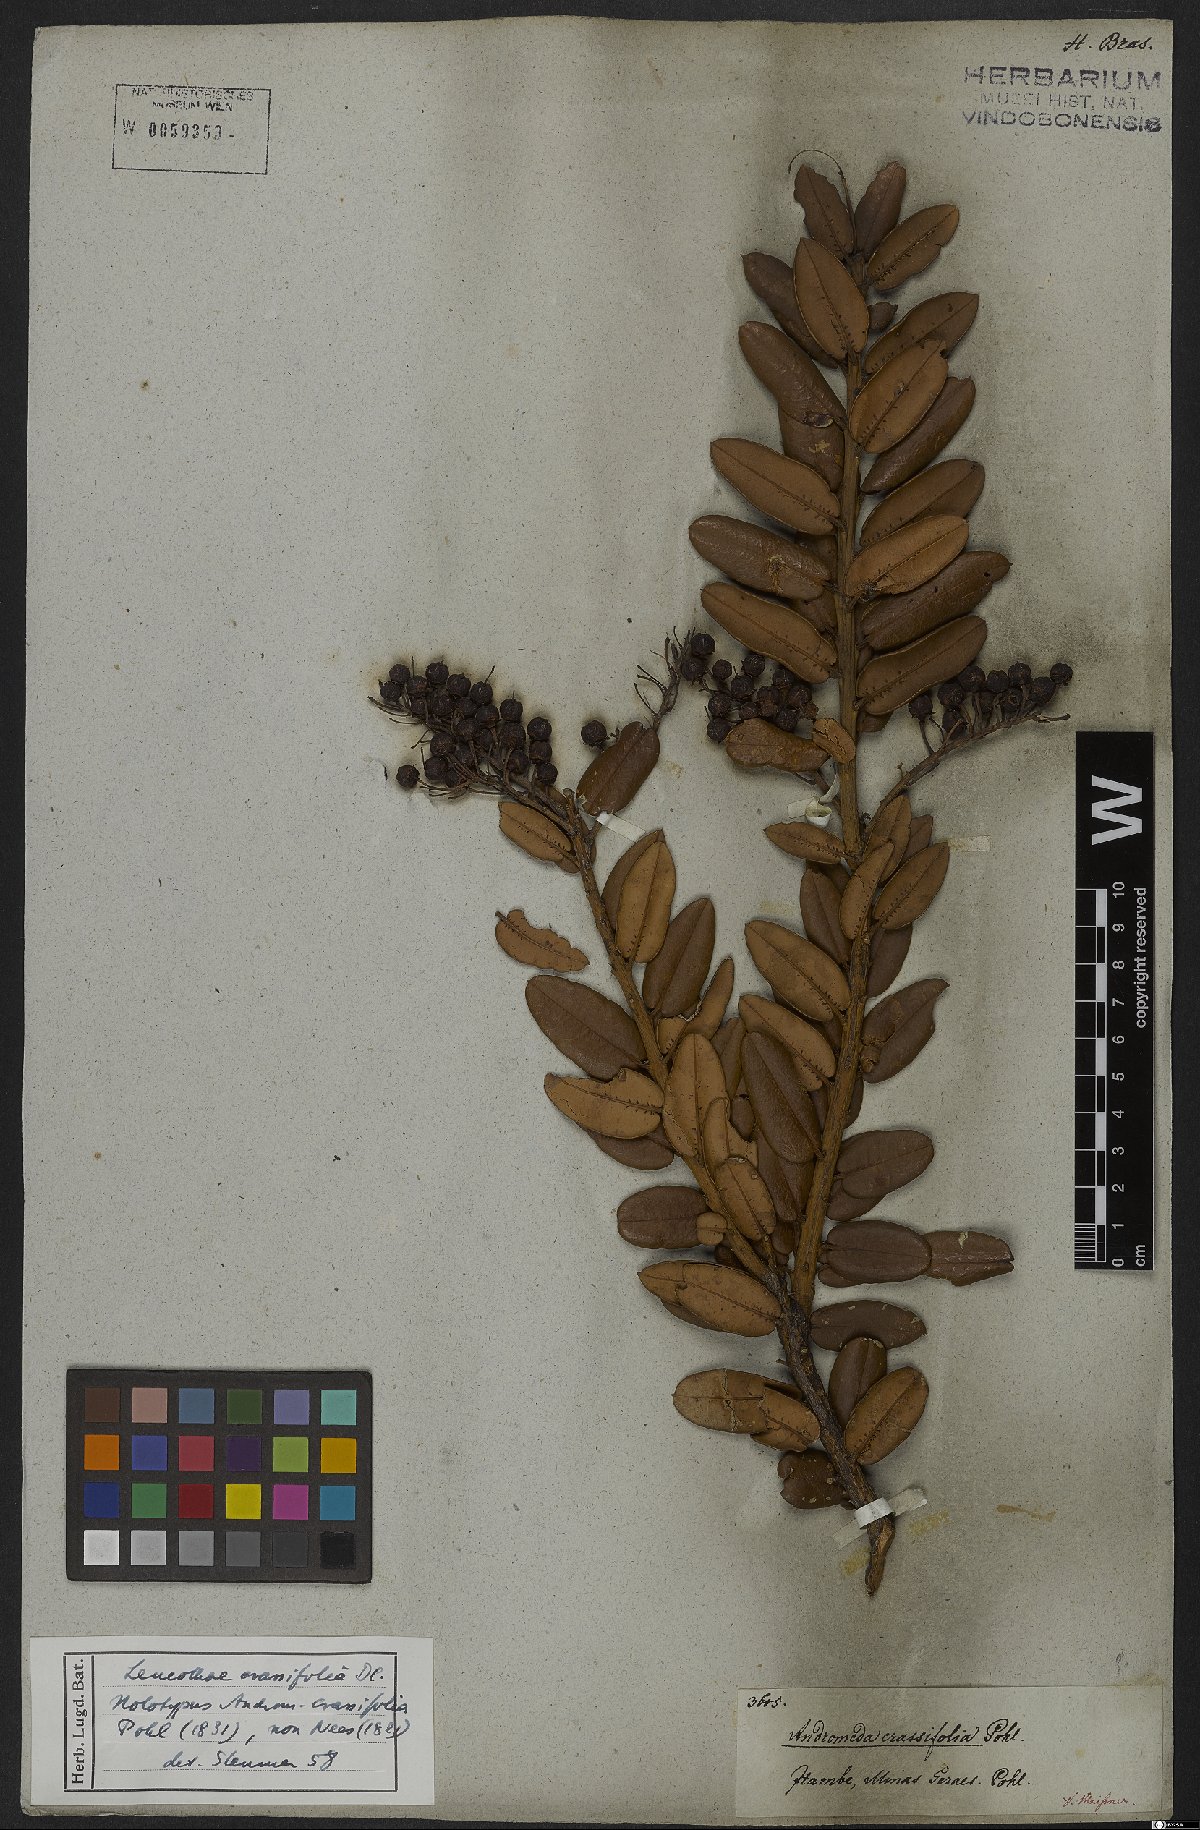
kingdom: Plantae
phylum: Tracheophyta
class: Magnoliopsida
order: Ericales
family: Ericaceae
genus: Agarista
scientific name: Agarista coriifolia
